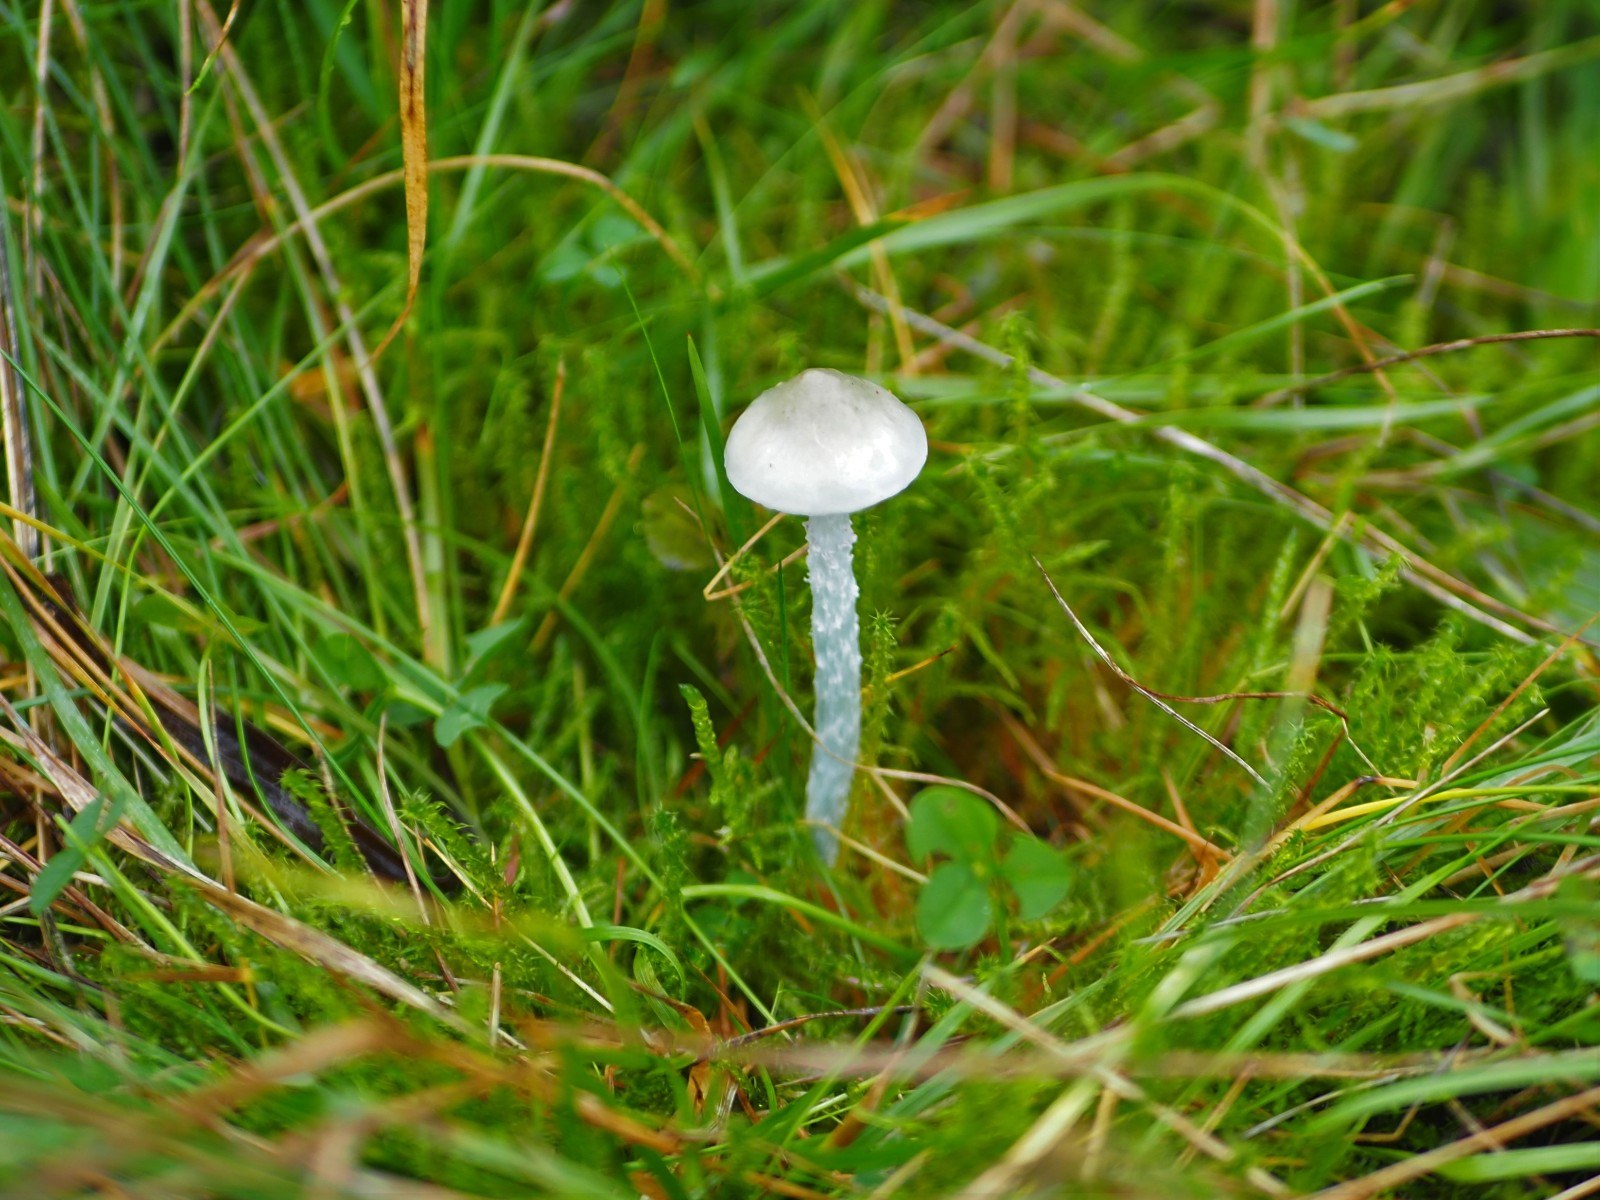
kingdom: Fungi
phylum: Basidiomycota
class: Agaricomycetes
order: Agaricales
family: Strophariaceae
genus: Stropharia
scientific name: Stropharia pseudocyanea
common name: blegblå bredblad
